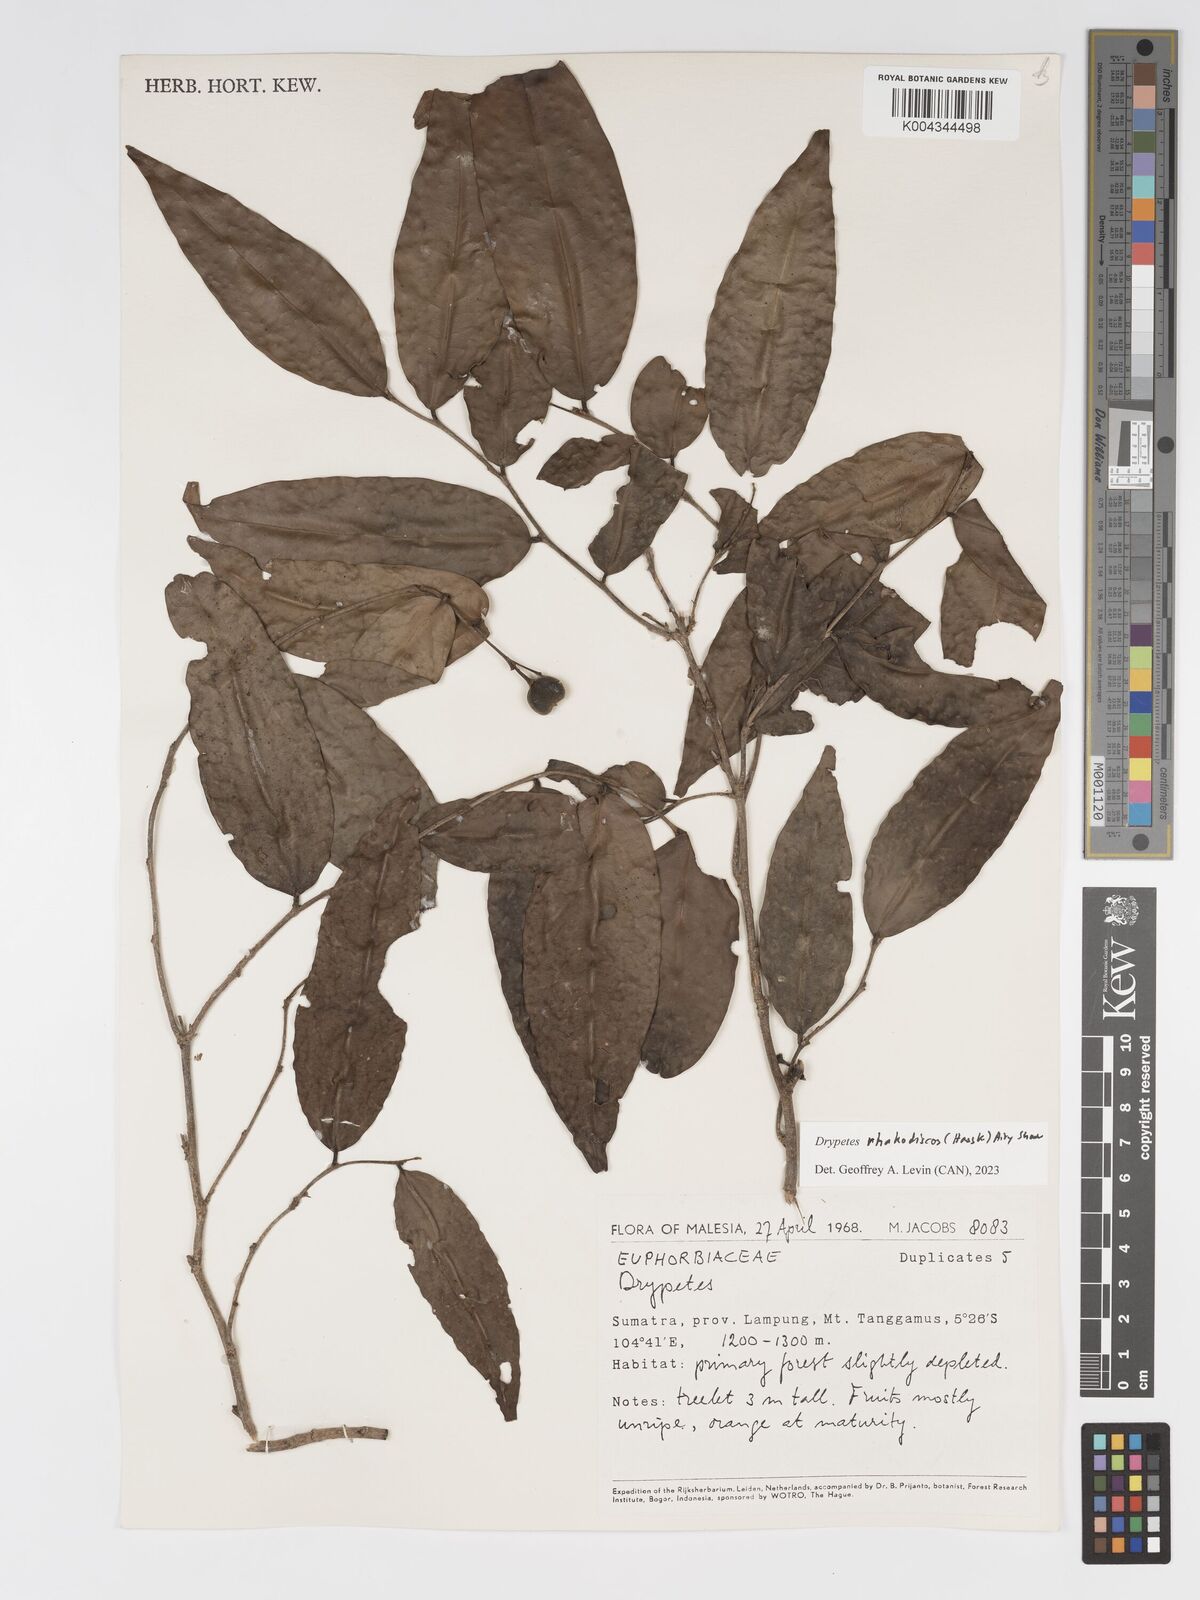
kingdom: Plantae
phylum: Tracheophyta
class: Magnoliopsida
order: Malpighiales
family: Putranjivaceae
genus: Drypetes
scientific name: Drypetes rhakodiskos
